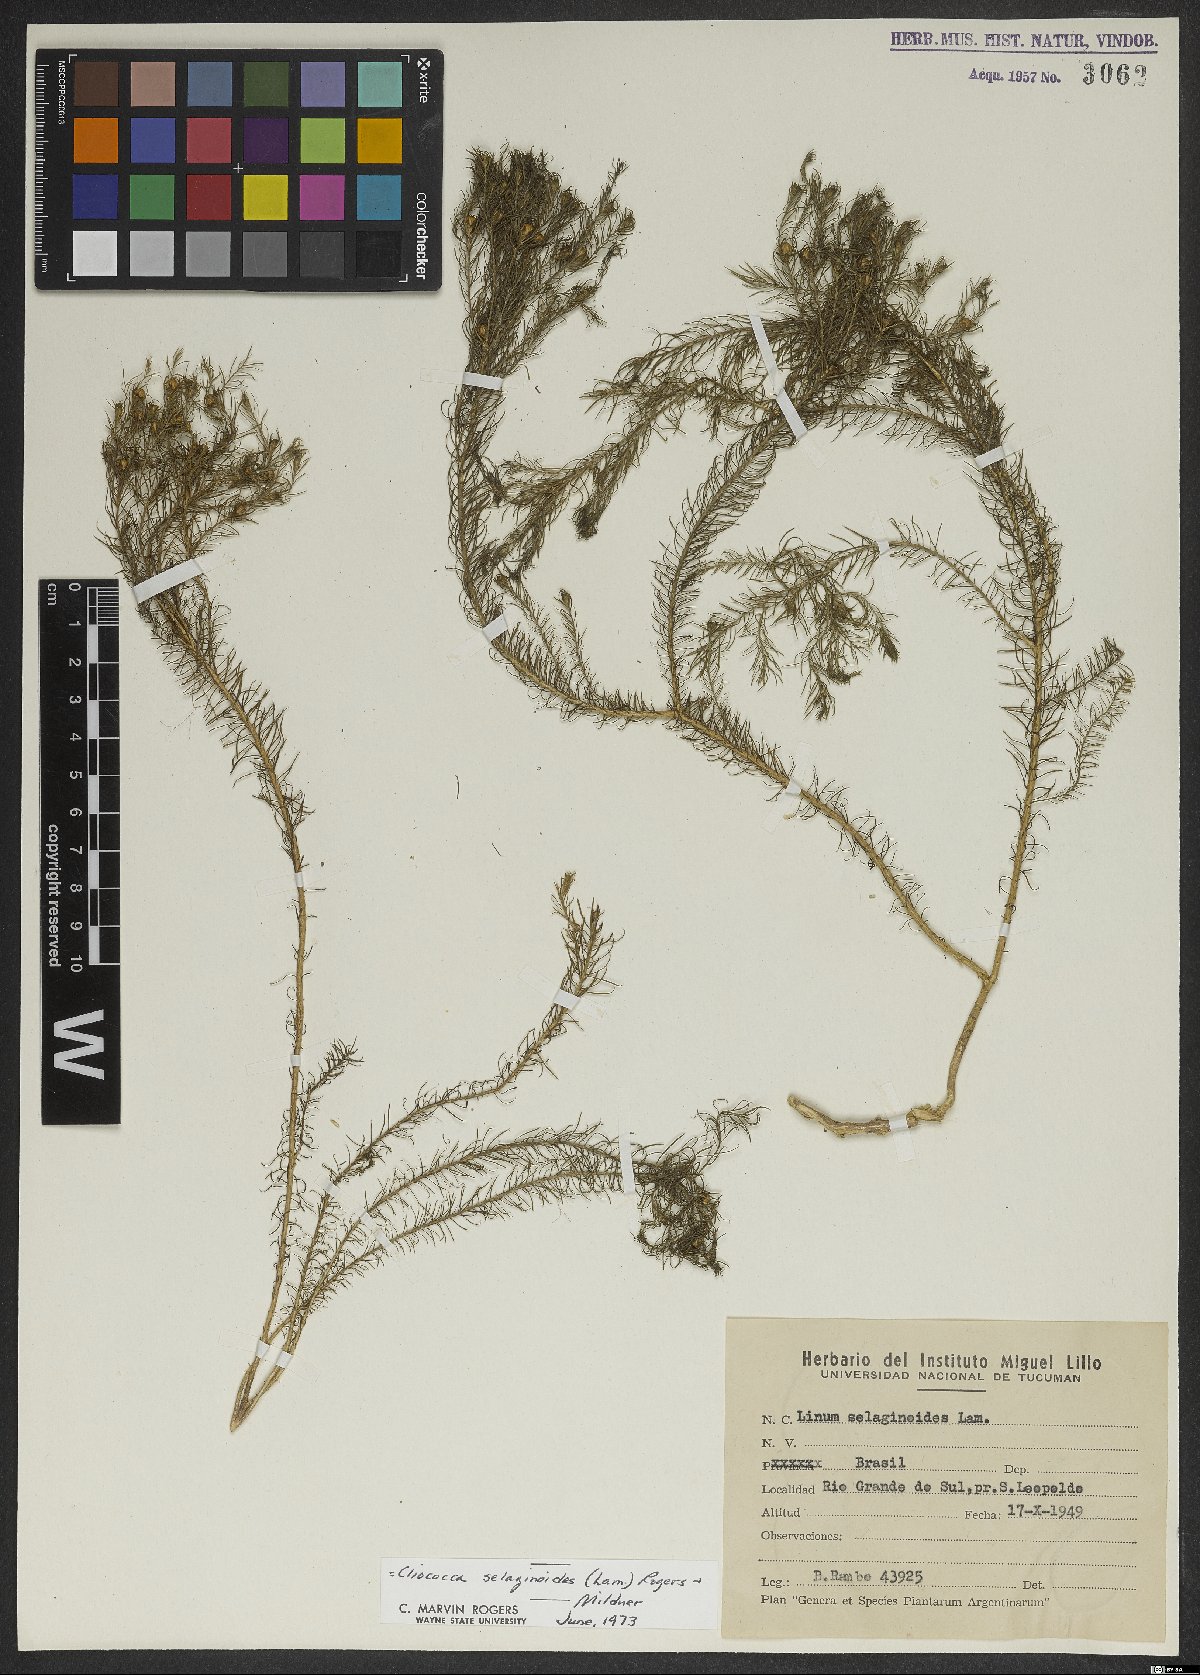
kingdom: Plantae
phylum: Tracheophyta
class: Magnoliopsida
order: Malpighiales
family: Linaceae
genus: Cliococca
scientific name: Cliococca selaginoides
